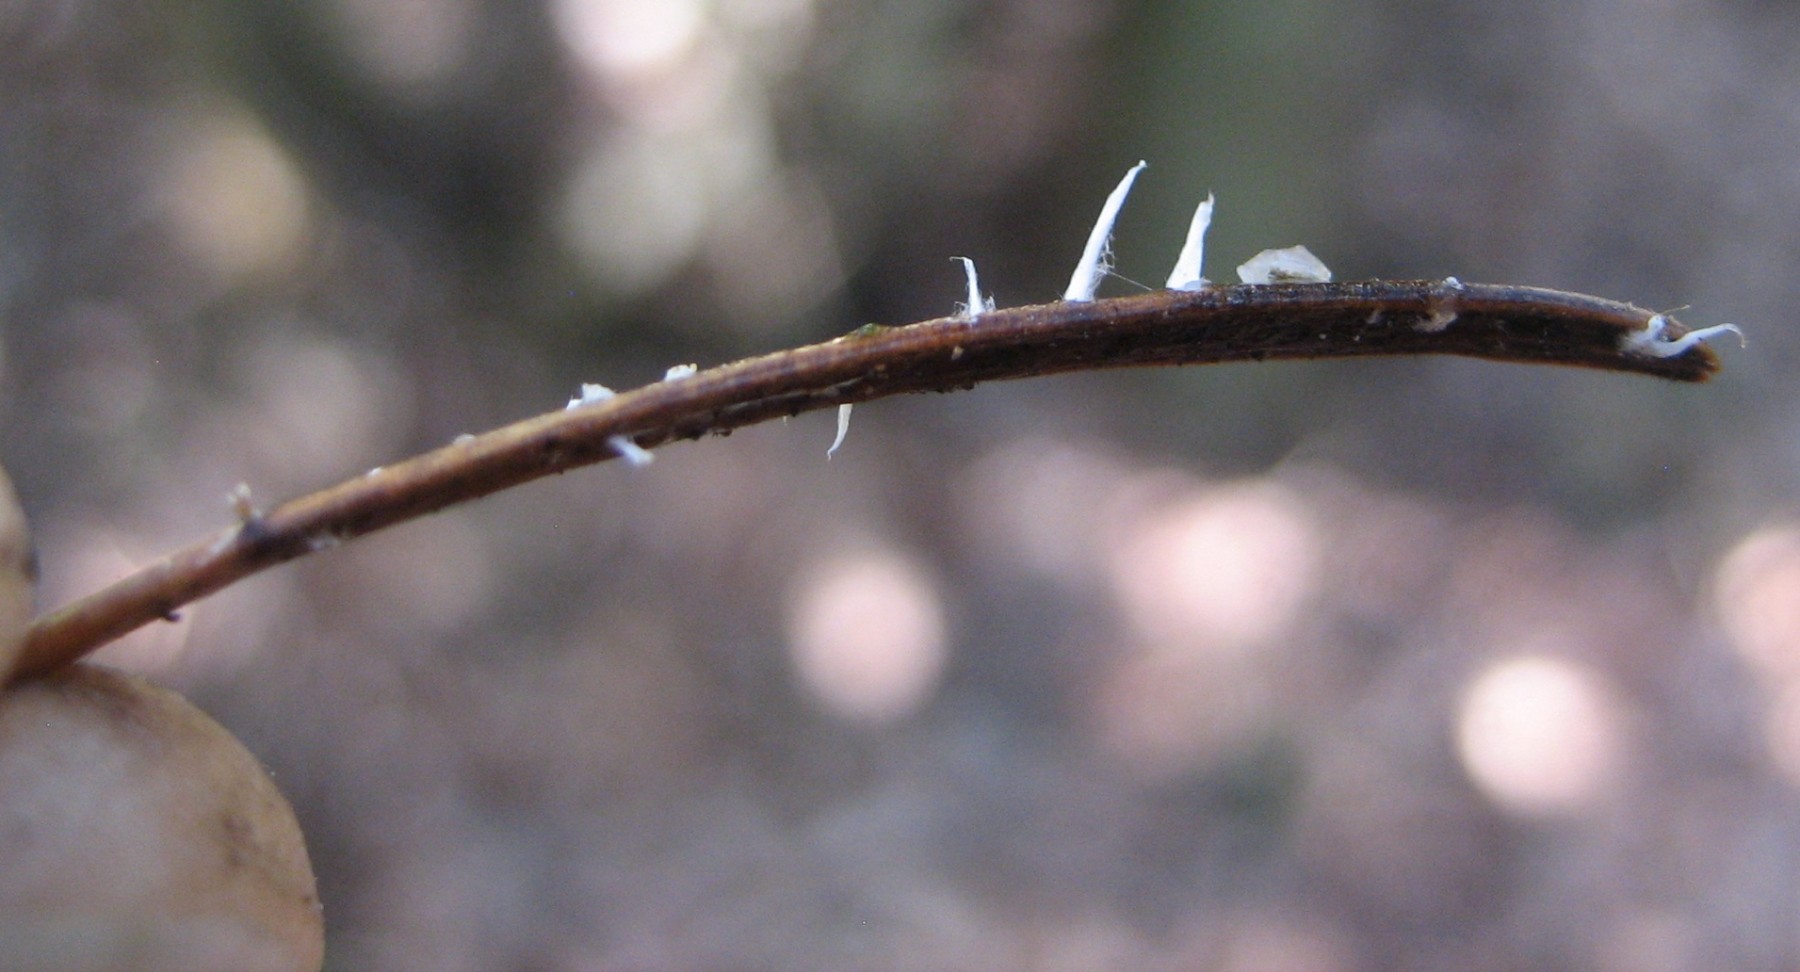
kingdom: Fungi
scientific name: Fungi
